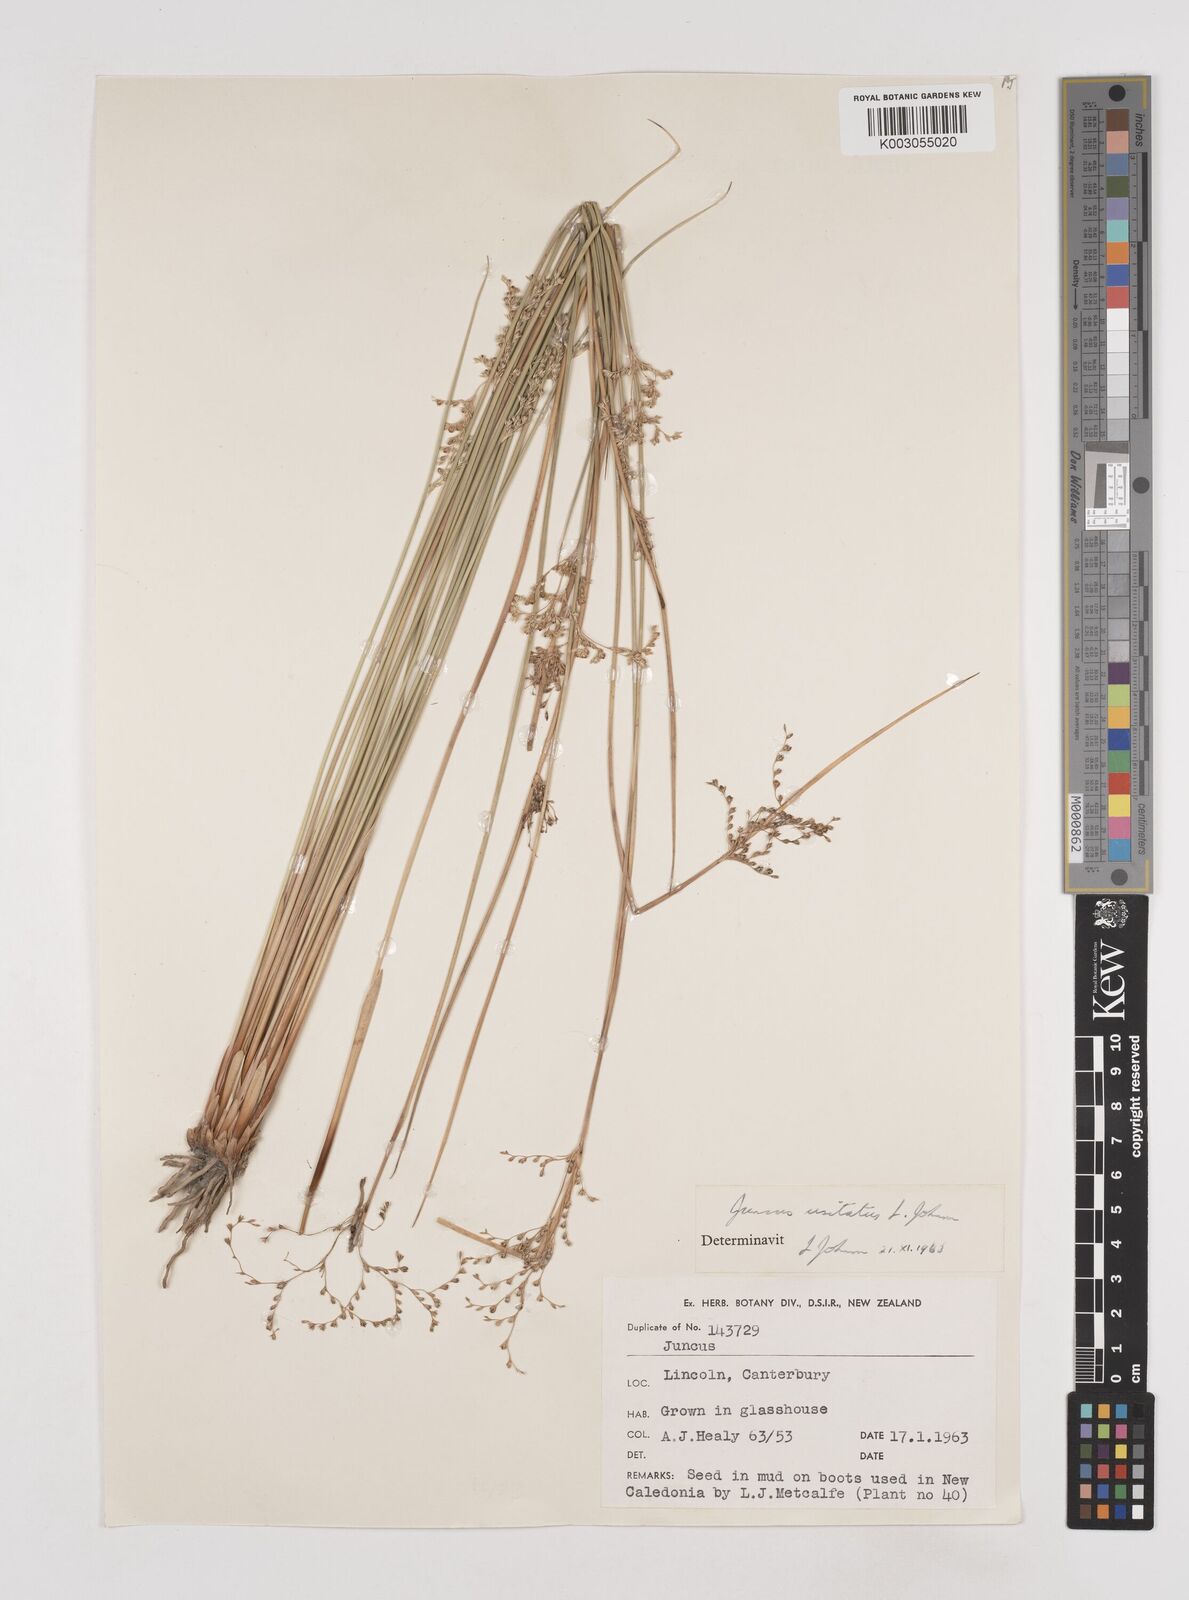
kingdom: Plantae
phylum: Tracheophyta
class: Liliopsida
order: Poales
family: Juncaceae
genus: Juncus
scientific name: Juncus usitatus
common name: Rush
